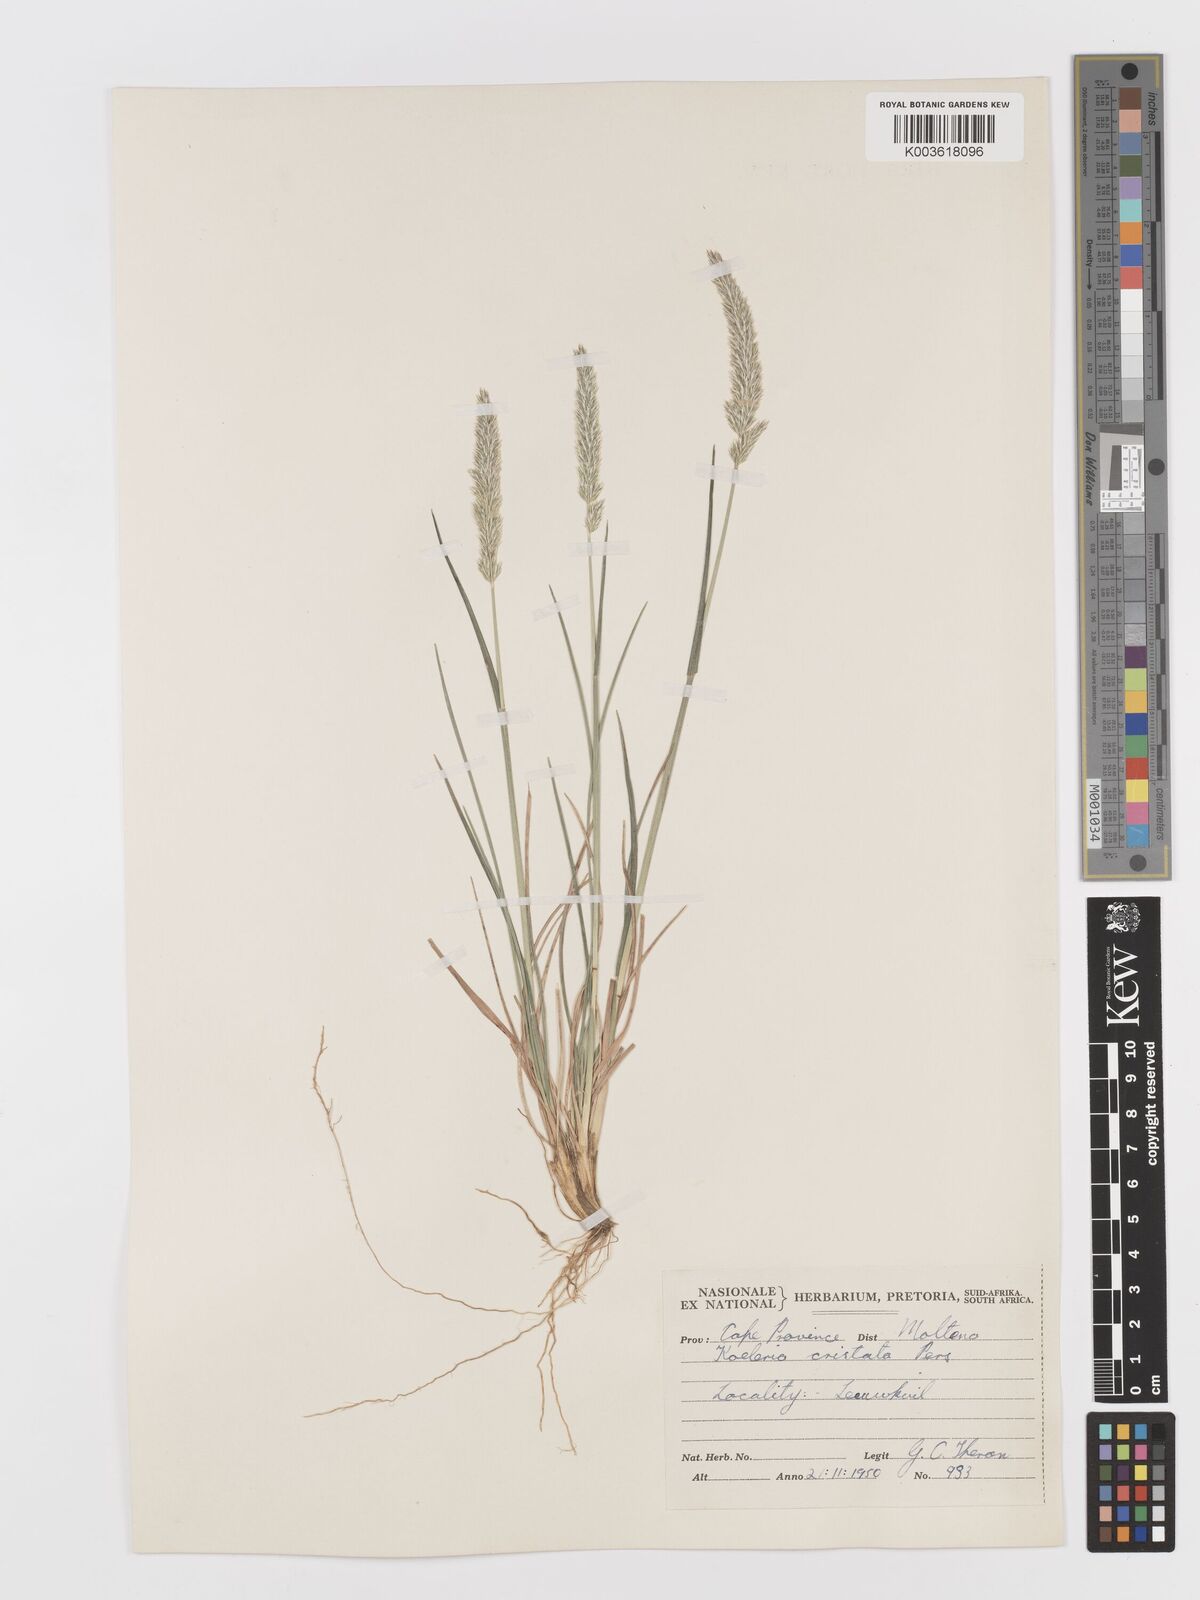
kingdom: Plantae
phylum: Tracheophyta
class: Liliopsida
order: Poales
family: Poaceae
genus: Koeleria
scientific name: Koeleria capensis
